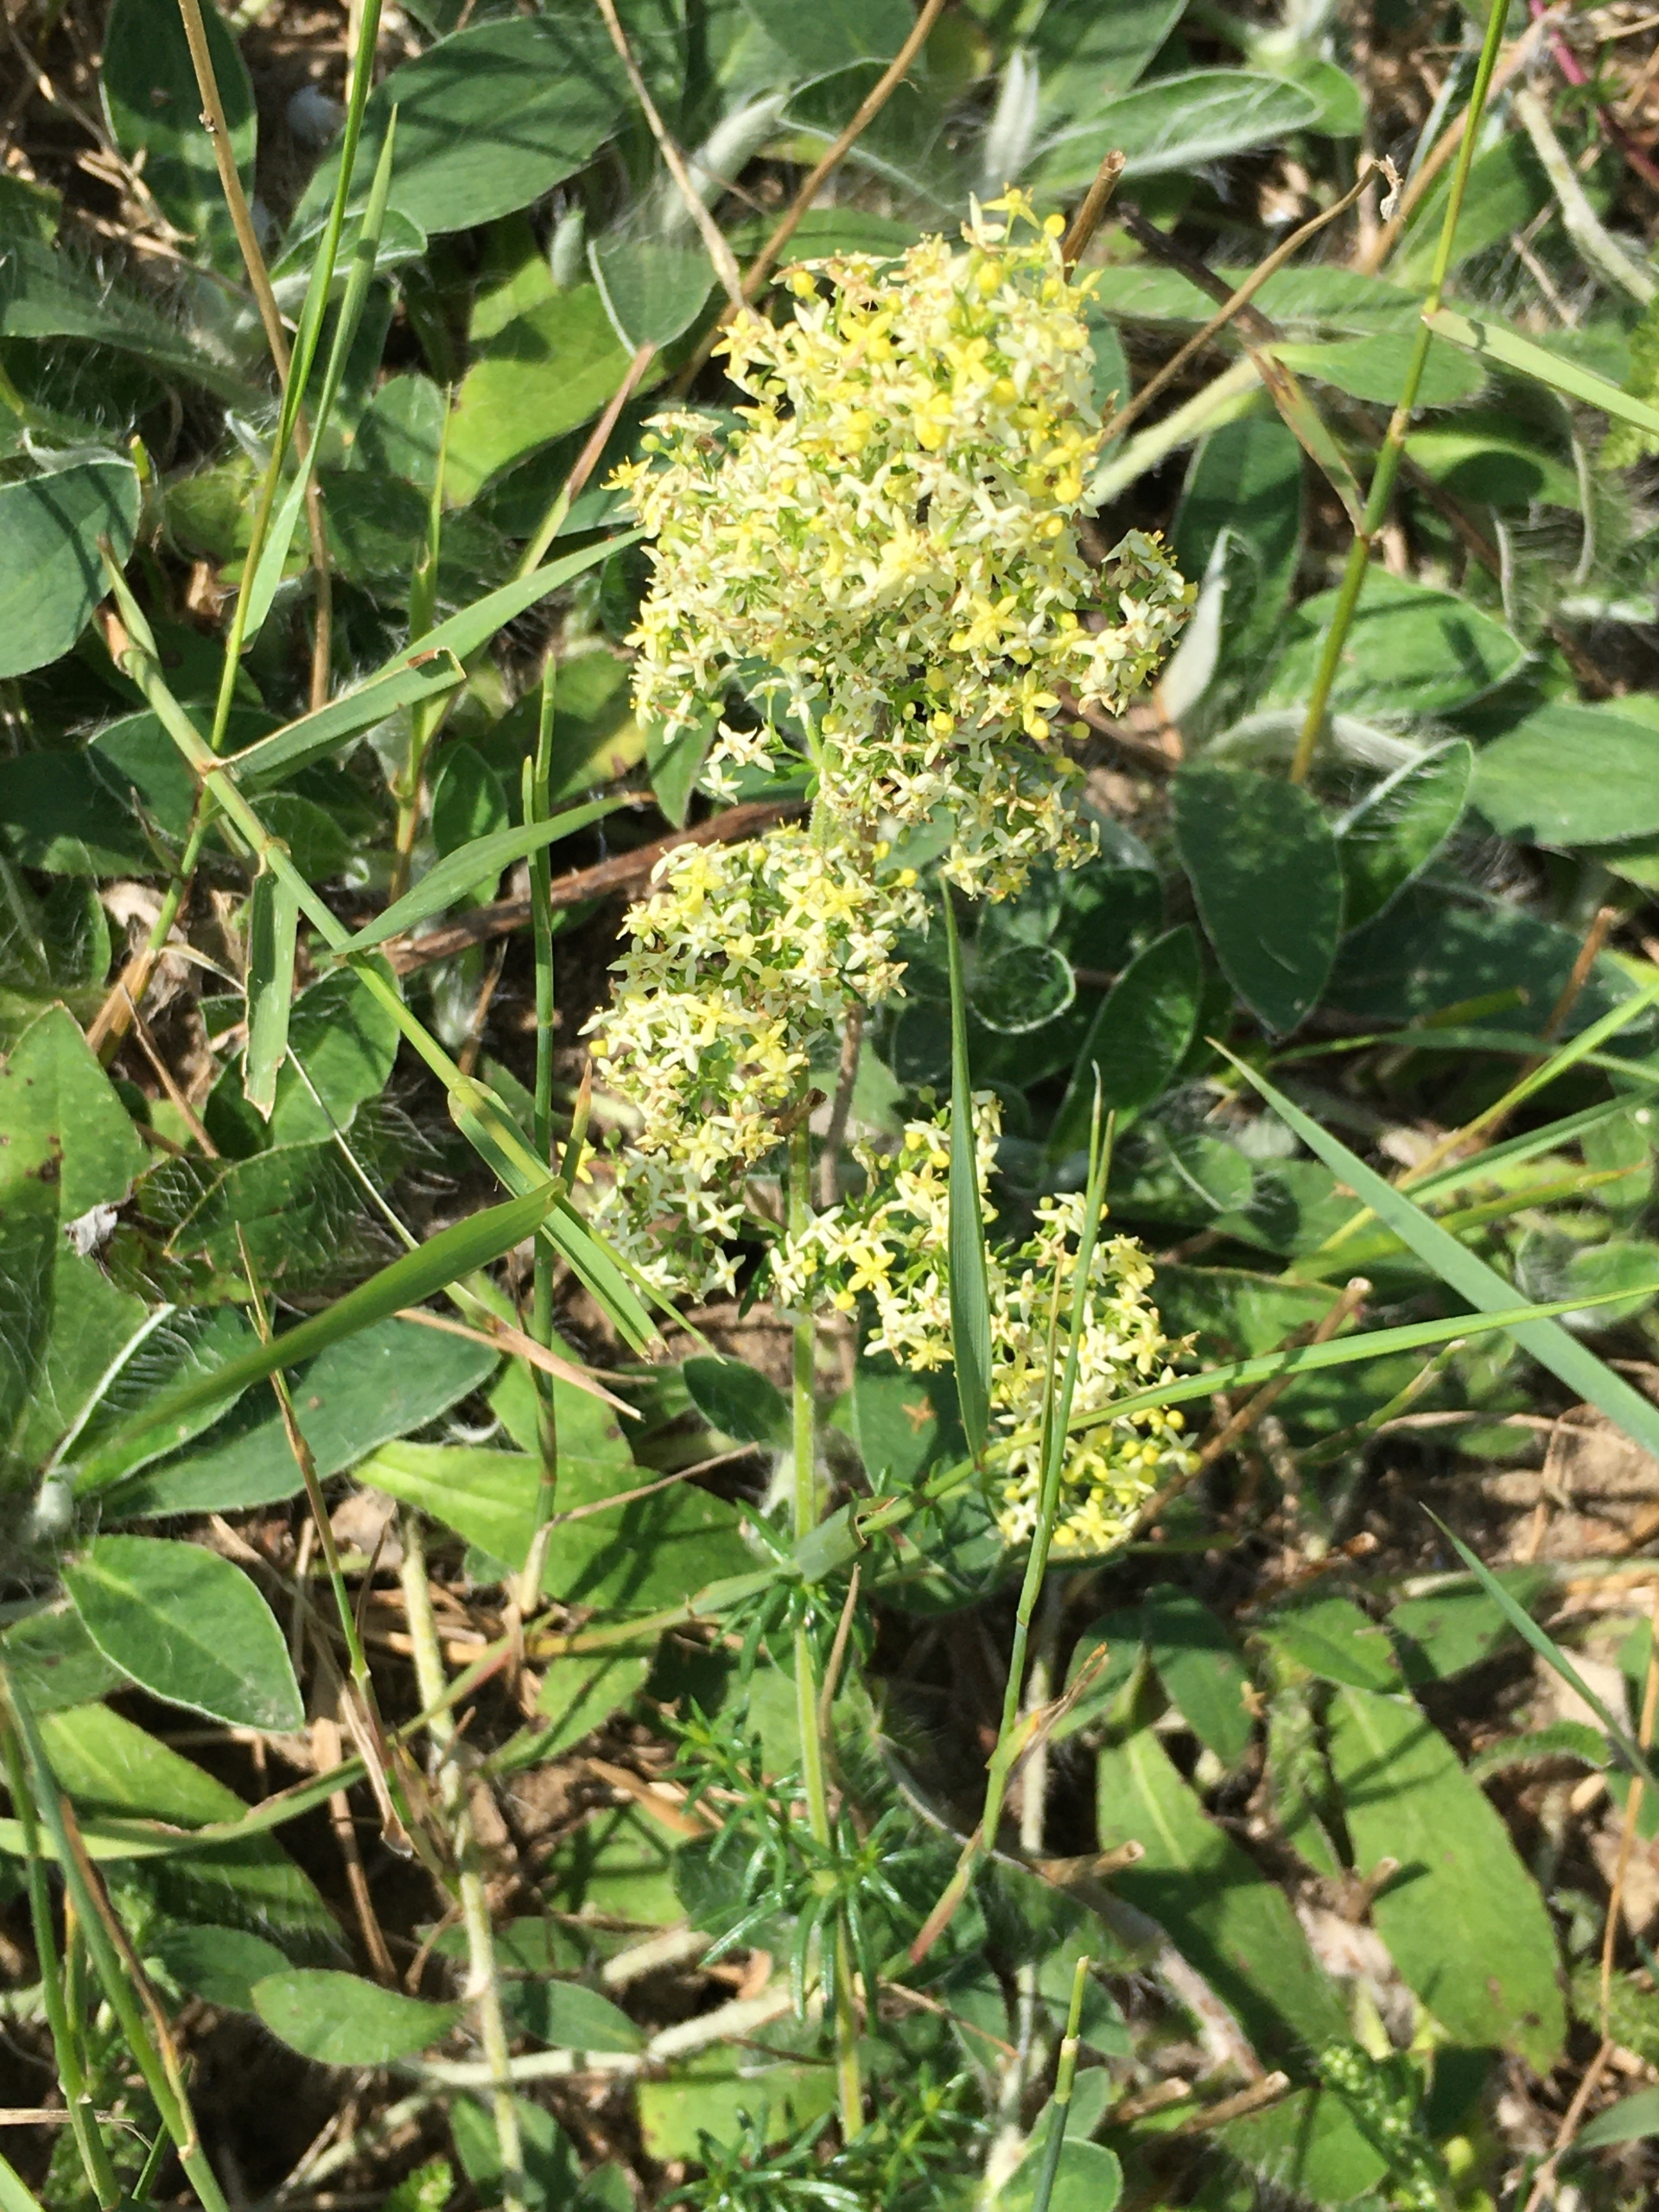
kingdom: Plantae
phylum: Tracheophyta
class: Magnoliopsida
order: Gentianales
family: Rubiaceae
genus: Galium
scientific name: Galium
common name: Hvidgul snerre
